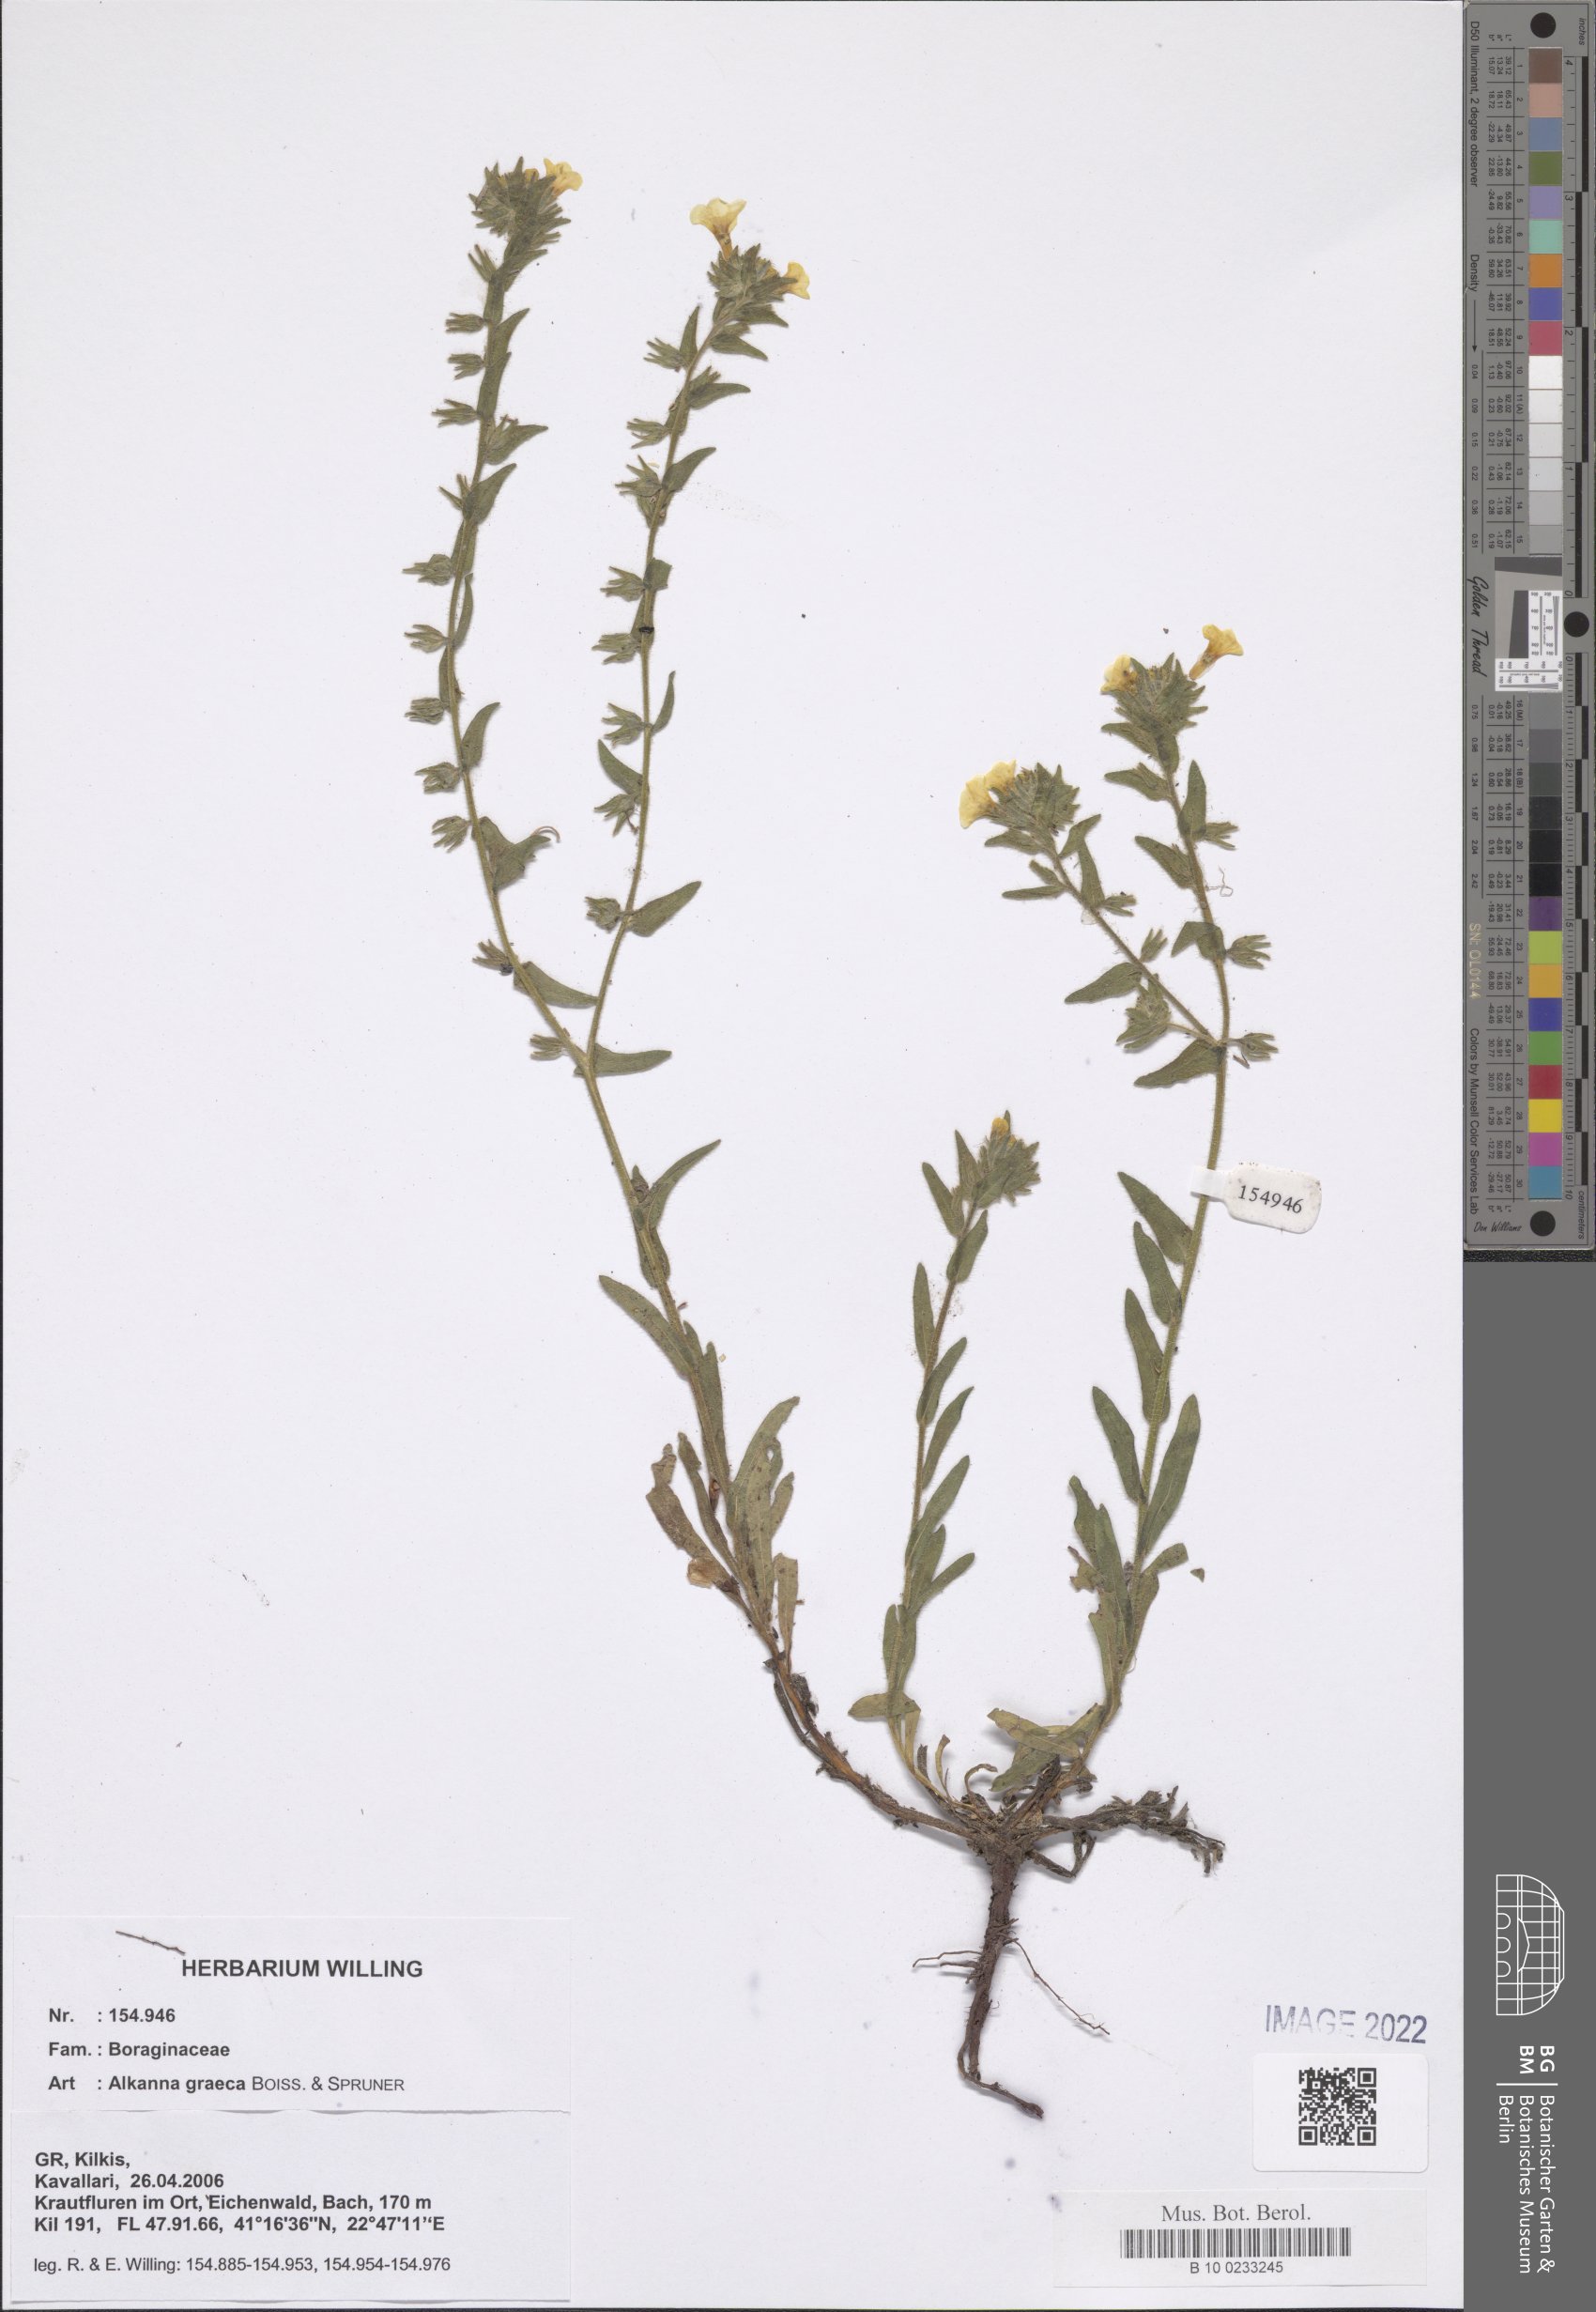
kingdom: Plantae
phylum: Tracheophyta
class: Magnoliopsida
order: Boraginales
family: Boraginaceae
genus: Alkanna
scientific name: Alkanna graeca
